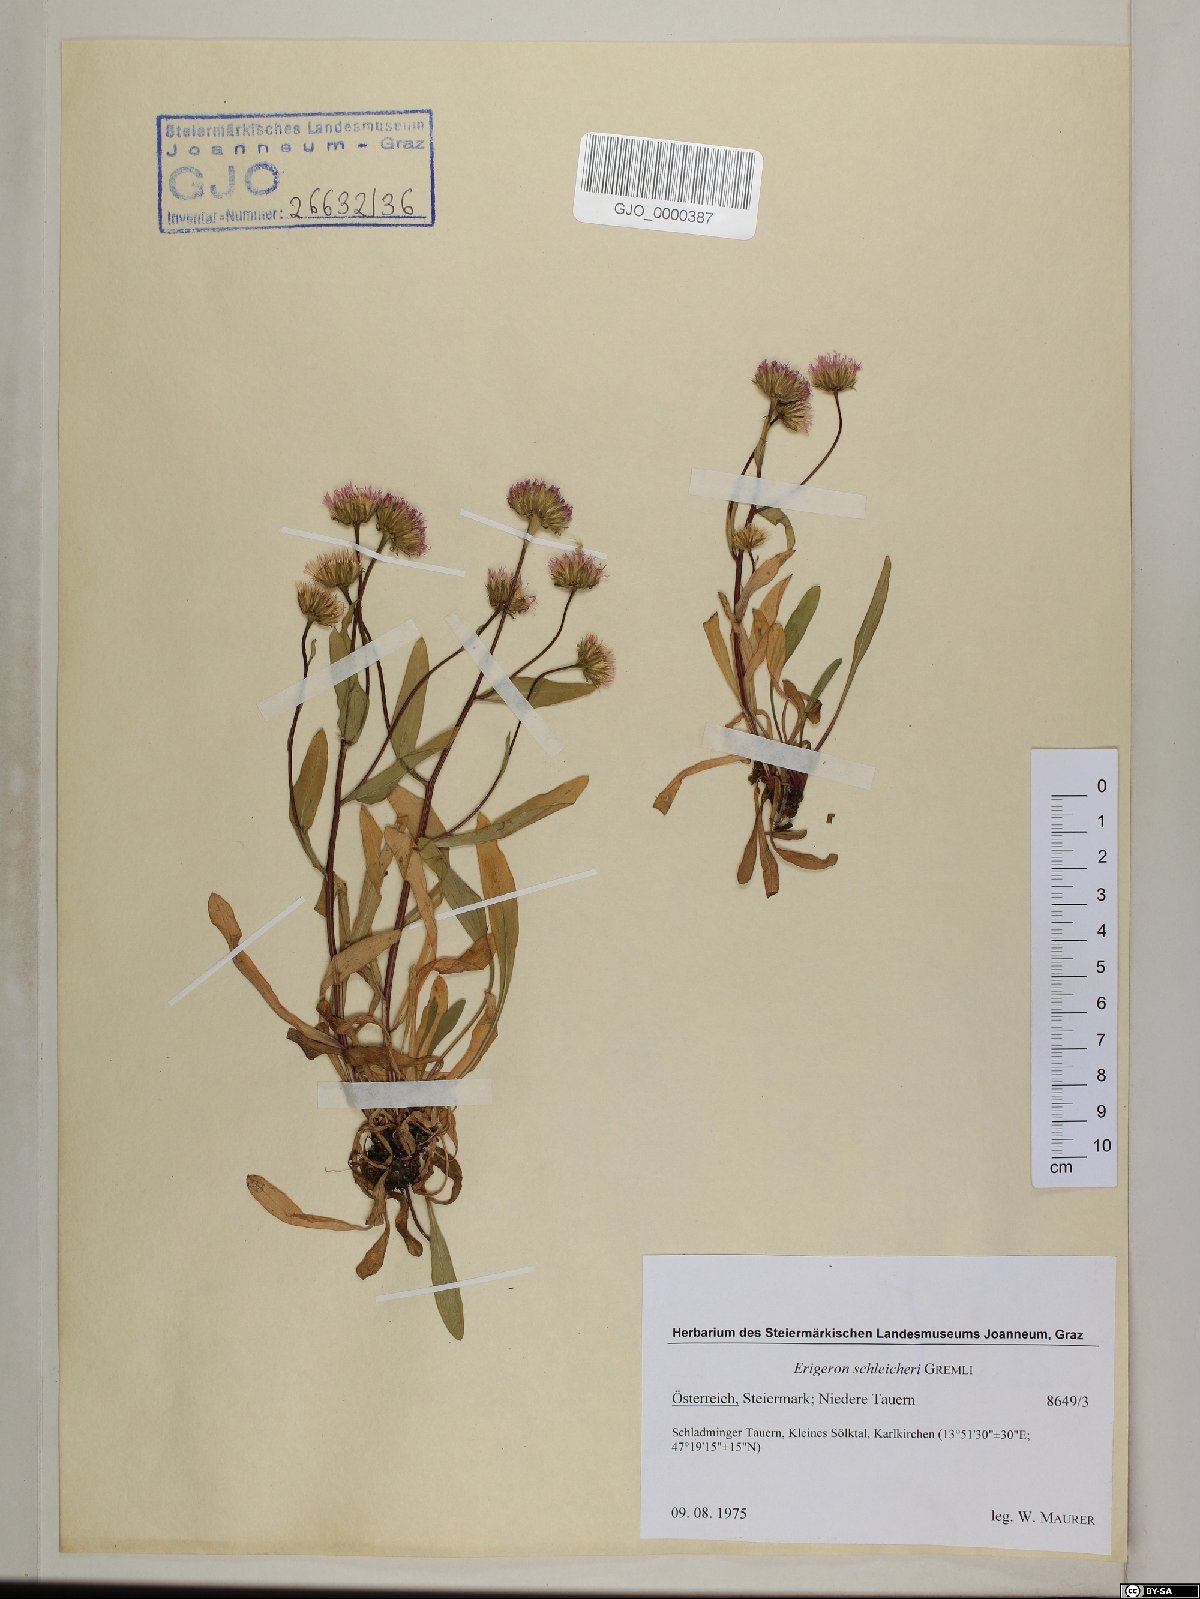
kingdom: Plantae
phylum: Tracheophyta
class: Magnoliopsida
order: Asterales
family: Asteraceae
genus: Erigeron
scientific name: Erigeron schleicheri
